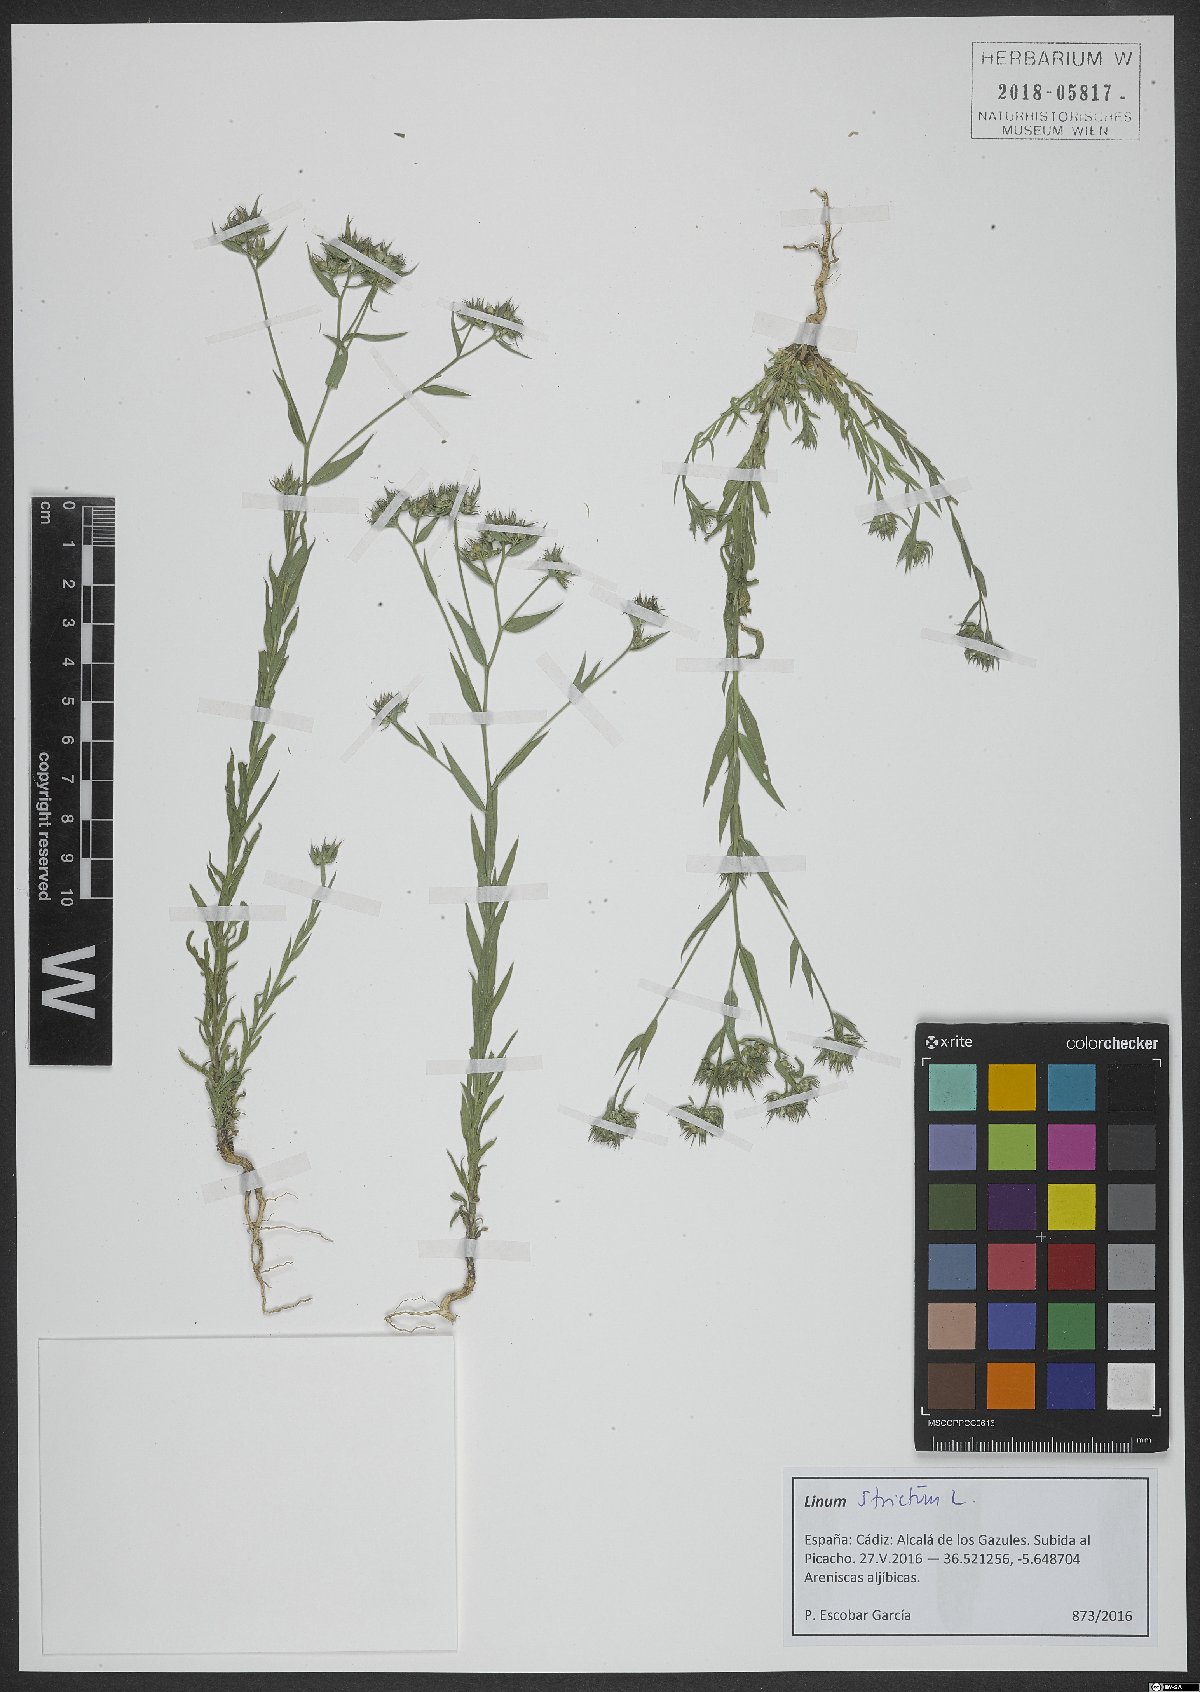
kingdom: Plantae
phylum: Tracheophyta
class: Magnoliopsida
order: Malpighiales
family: Linaceae
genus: Linum
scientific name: Linum strictum
